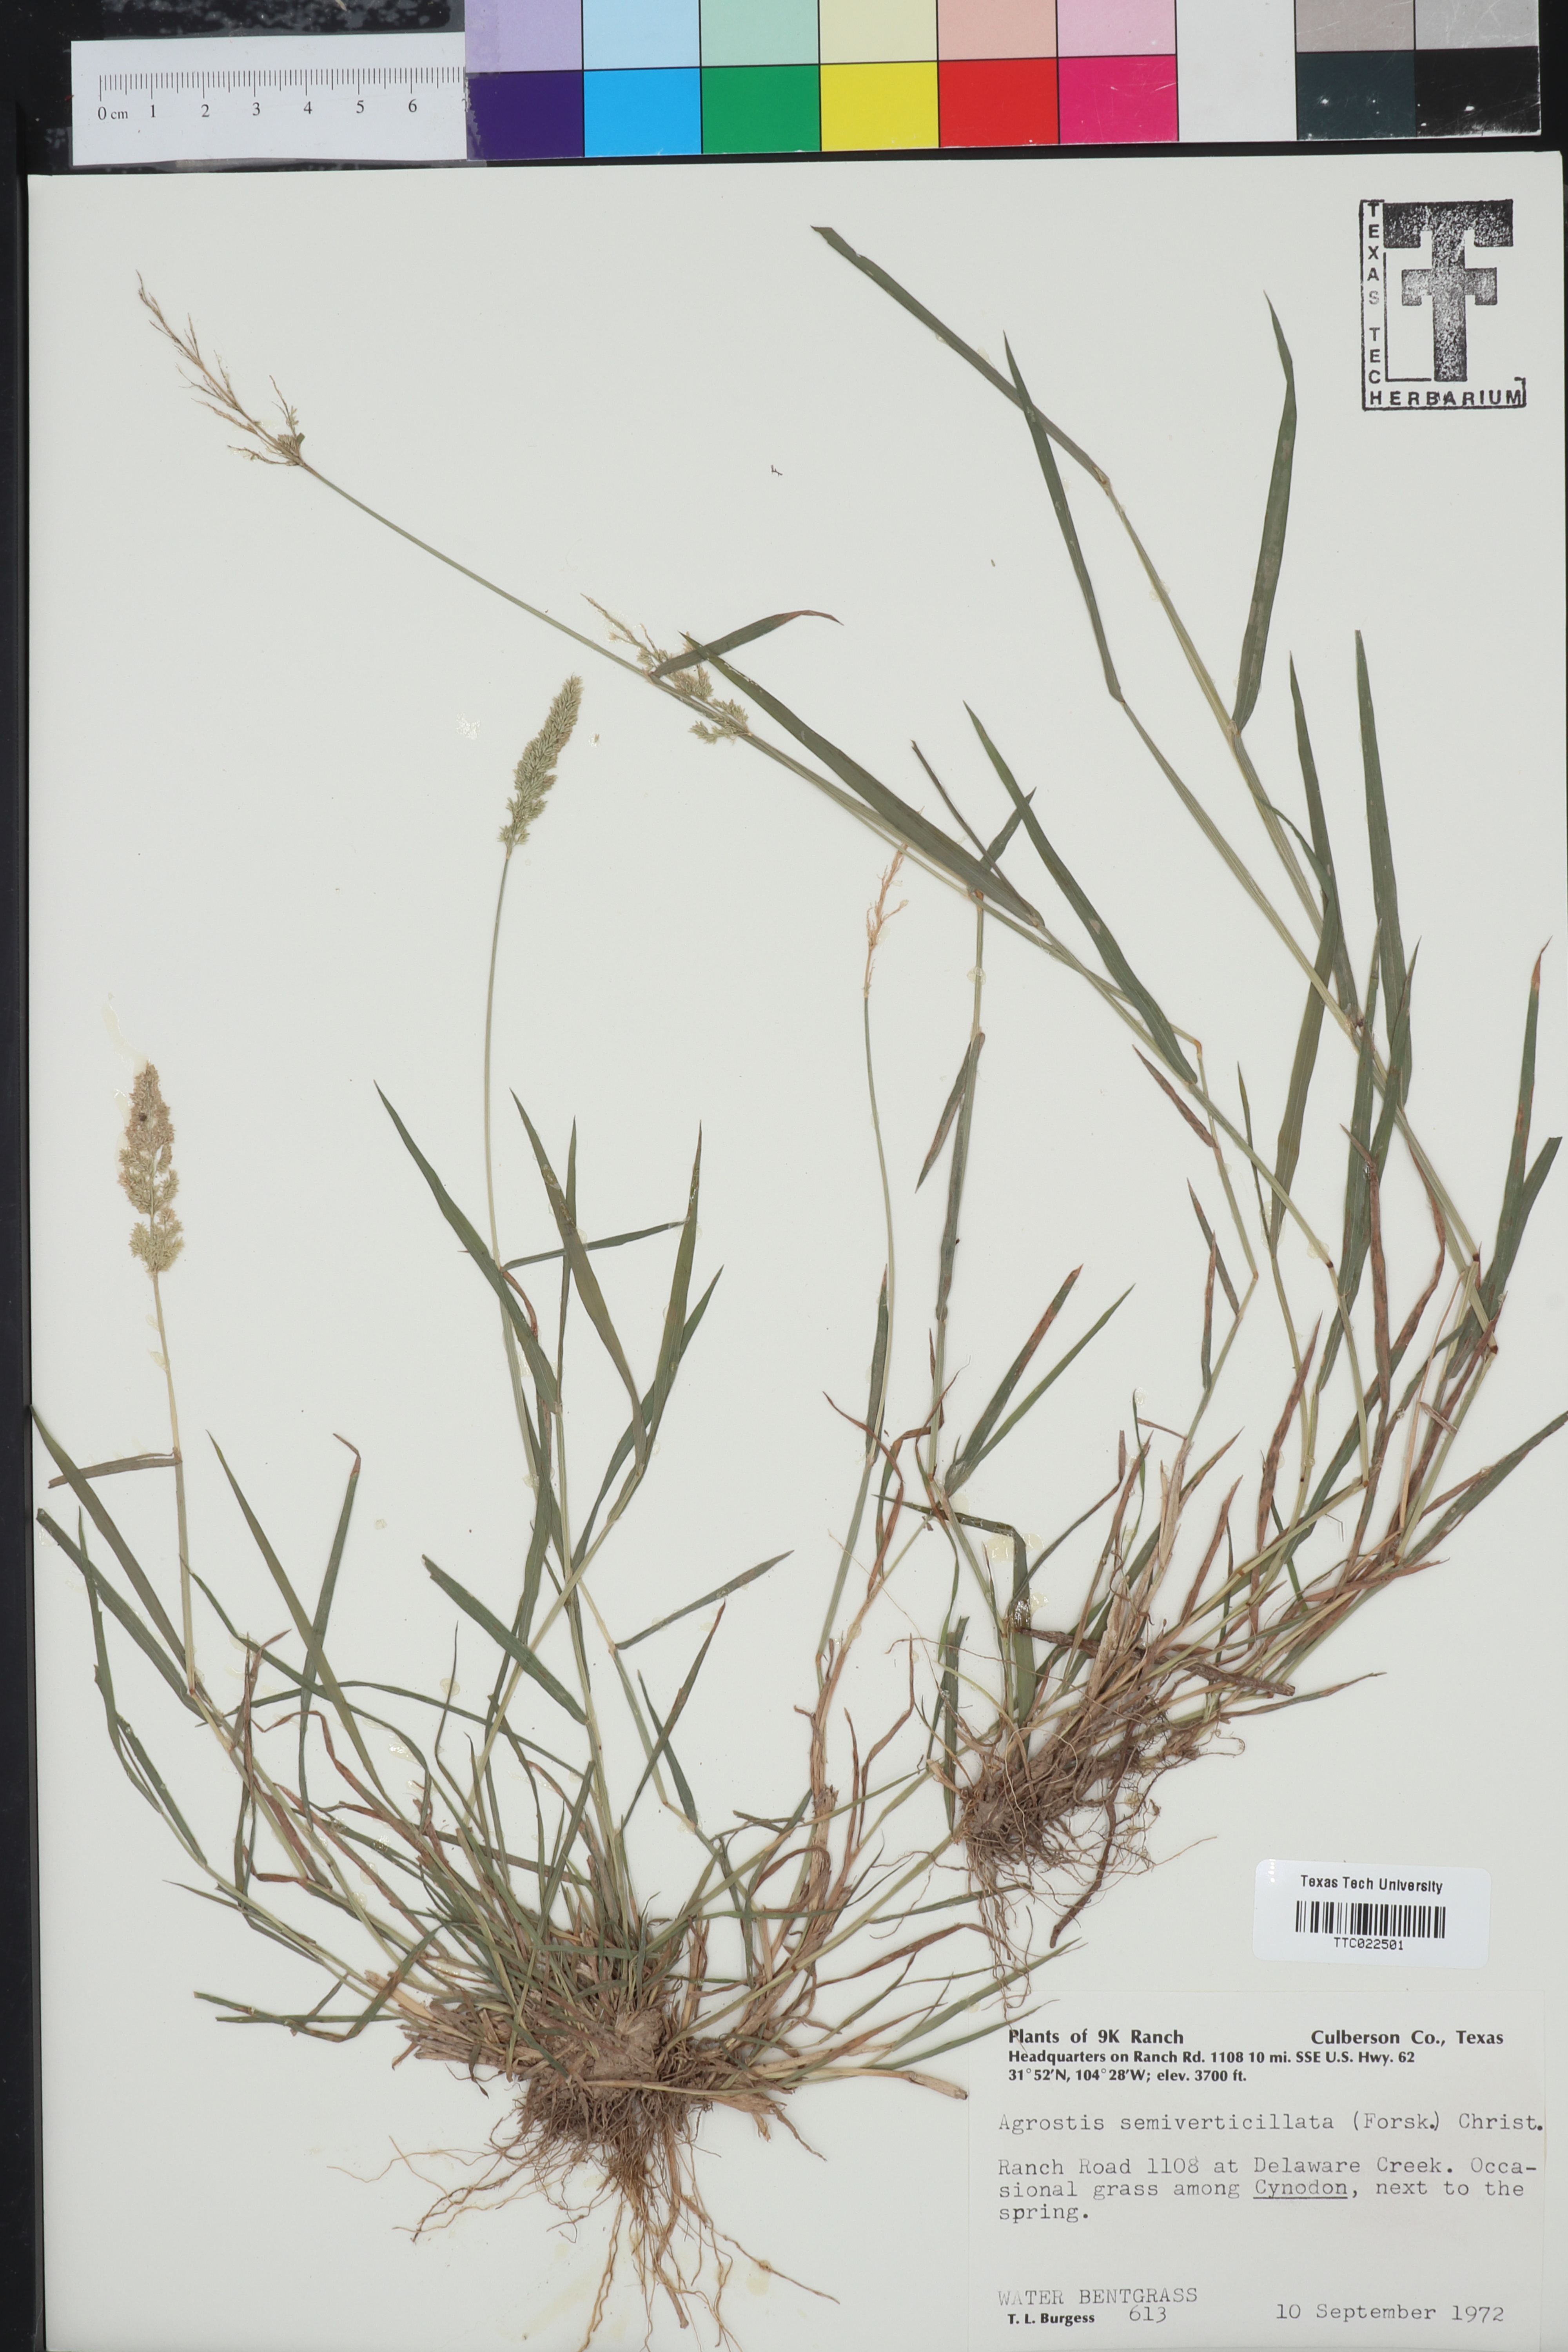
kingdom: Plantae
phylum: Tracheophyta
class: Liliopsida
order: Poales
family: Poaceae
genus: Polypogon
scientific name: Polypogon viridis
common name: Water bent
